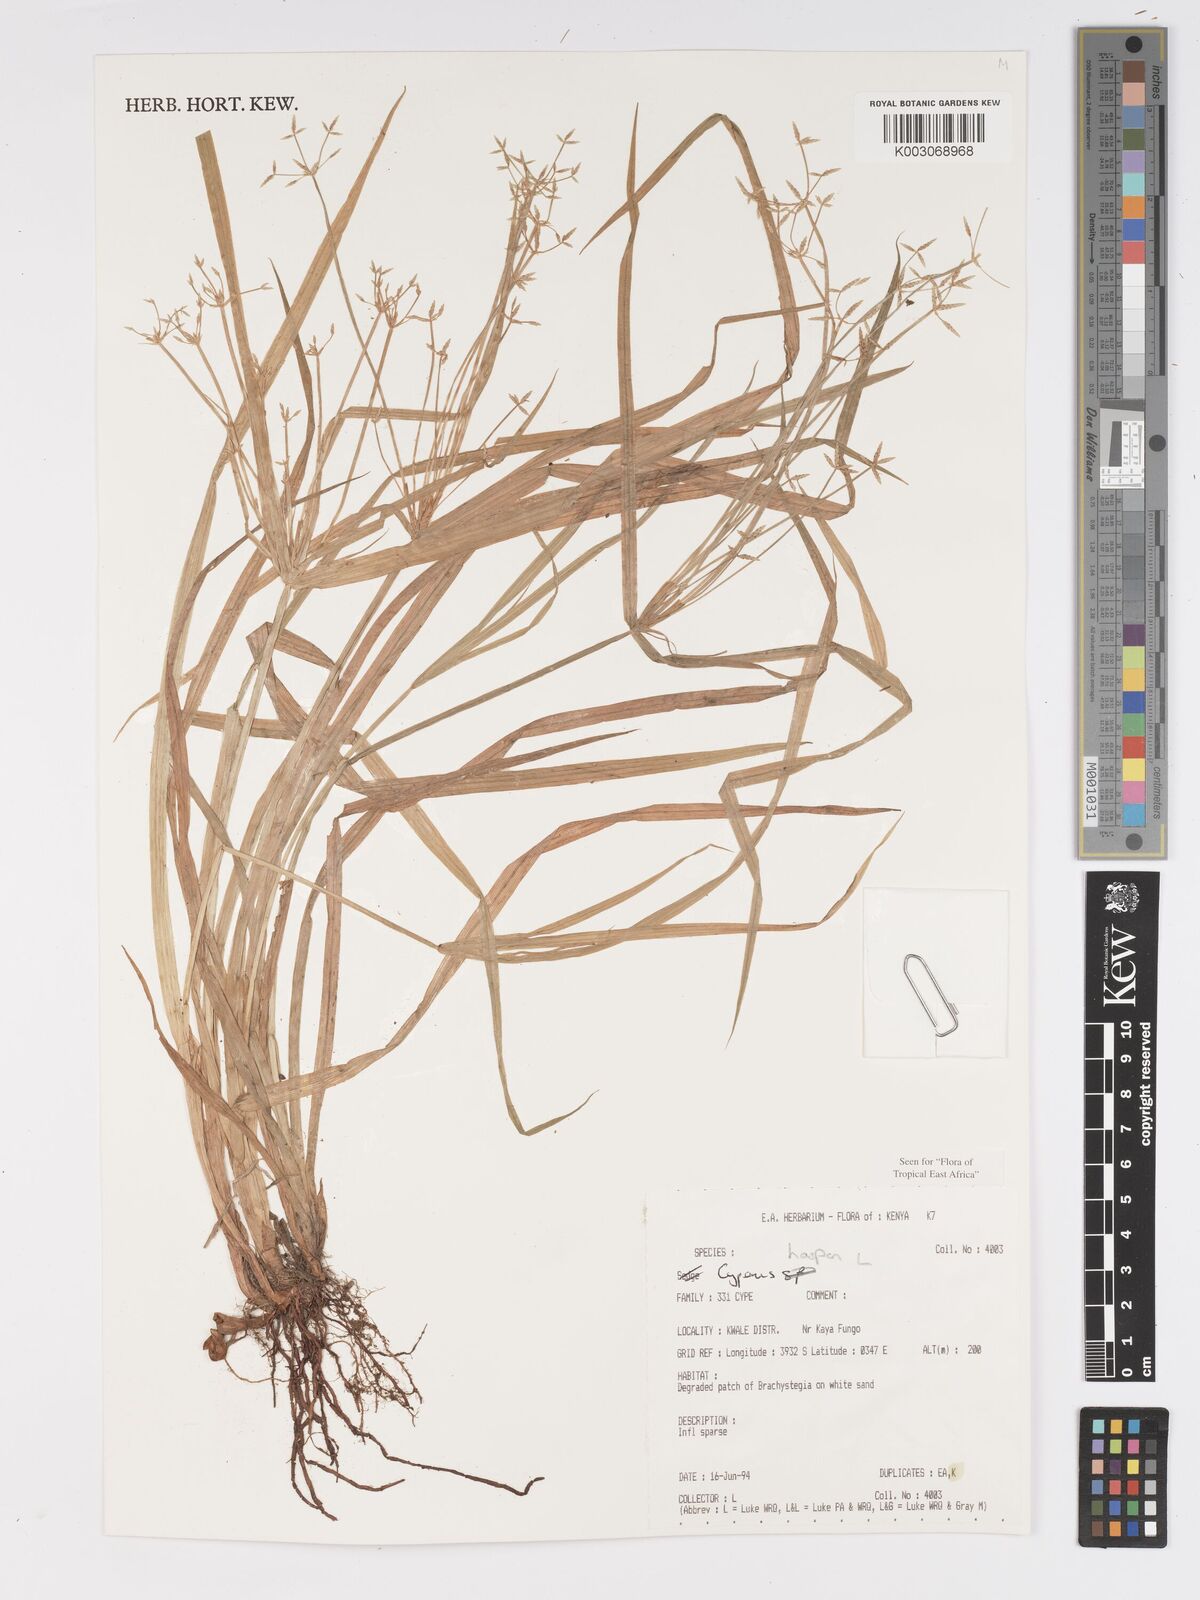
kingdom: Plantae
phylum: Tracheophyta
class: Liliopsida
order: Poales
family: Cyperaceae
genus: Cyperus
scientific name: Cyperus haspan
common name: Haspan flatsedge
